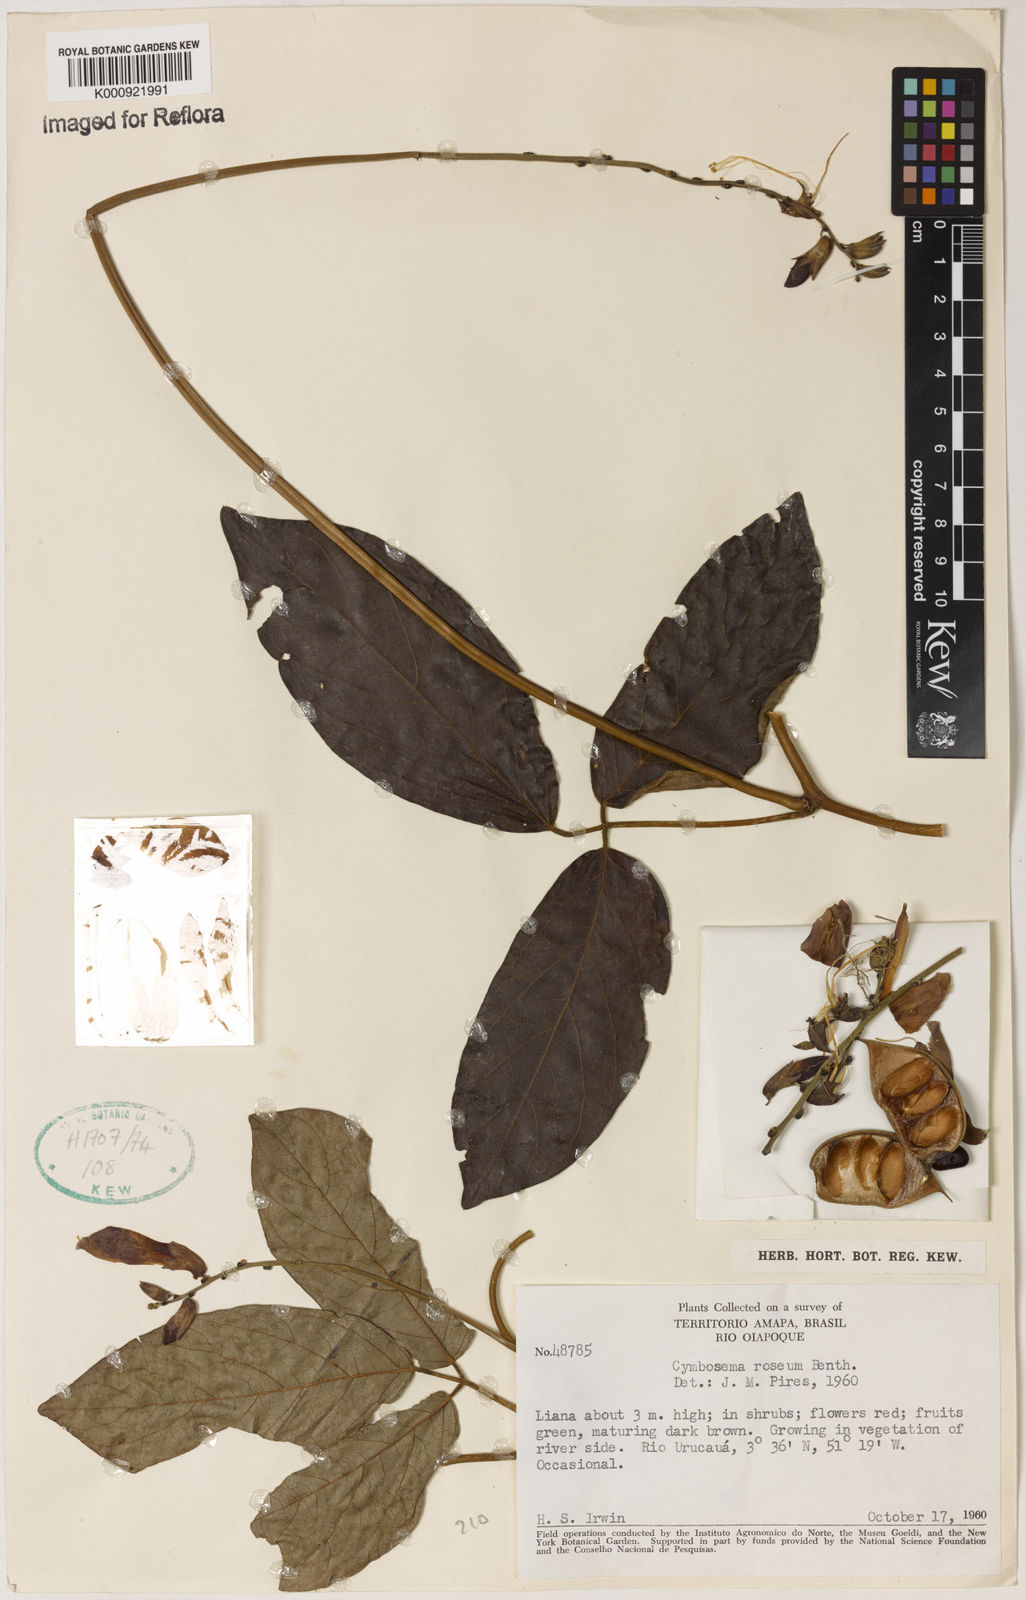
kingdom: Plantae
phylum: Tracheophyta
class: Magnoliopsida
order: Fabales
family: Fabaceae
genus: Cymbosema
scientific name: Cymbosema roseum
